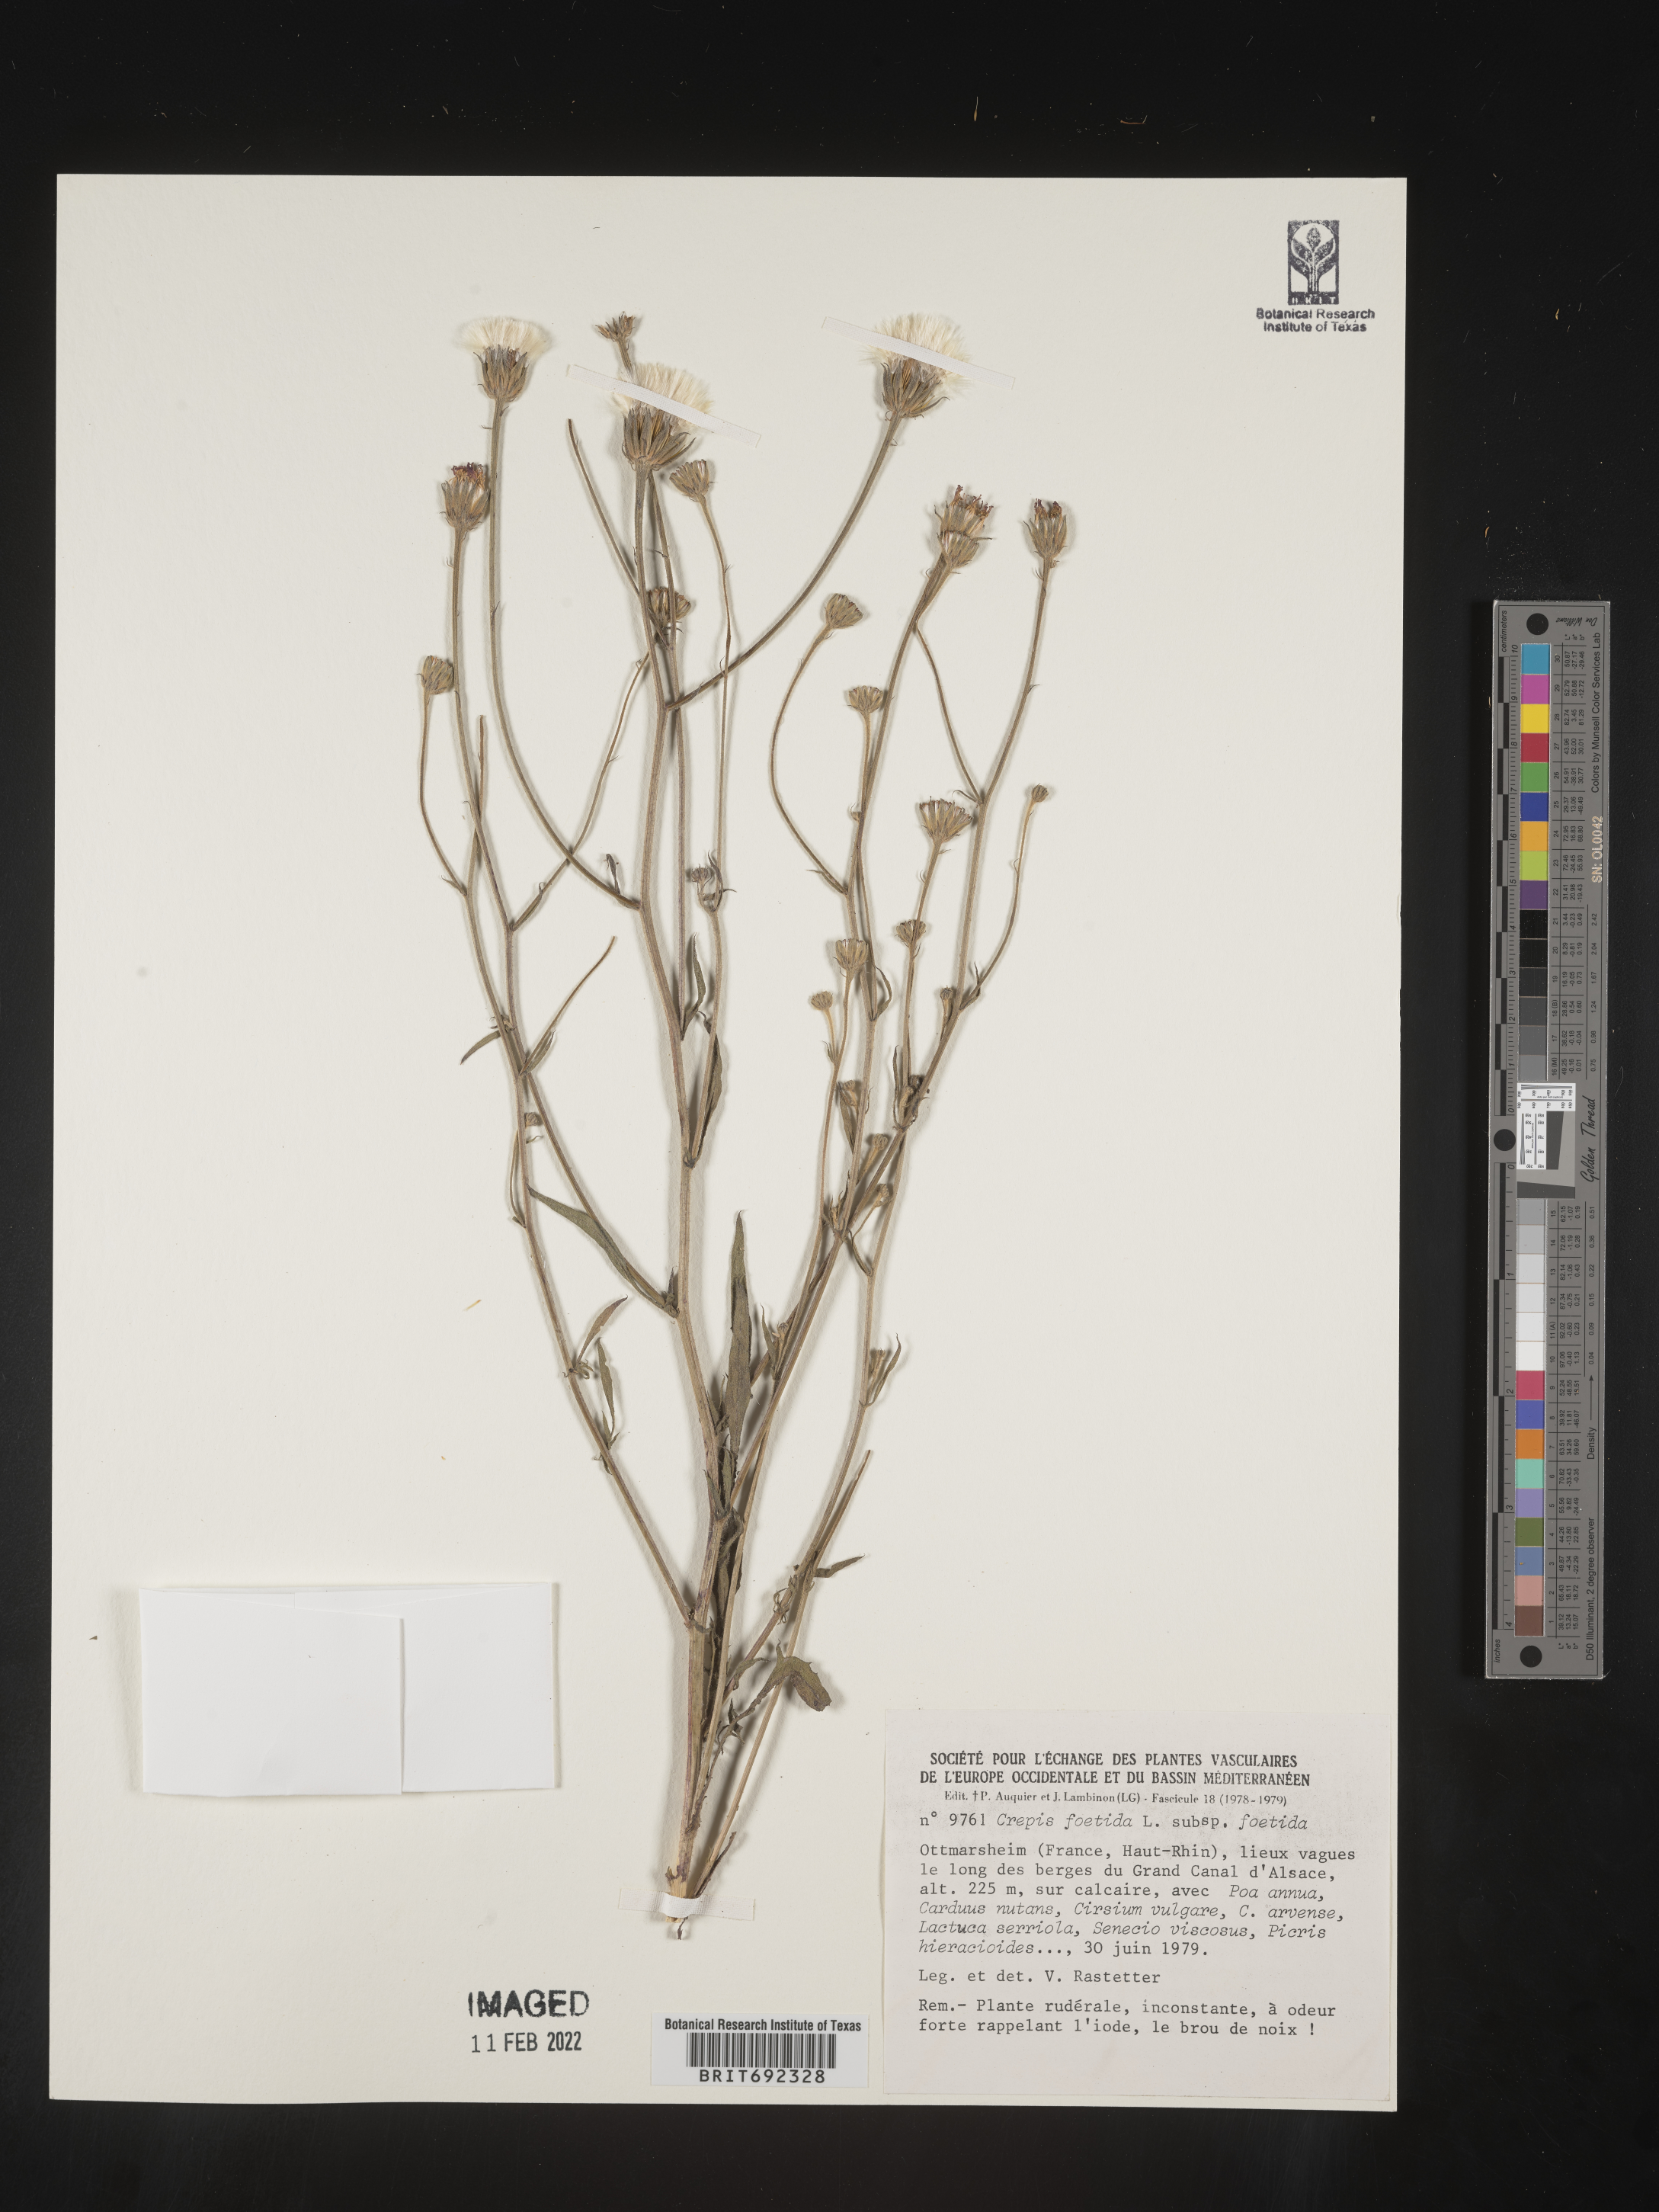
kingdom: Plantae
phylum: Tracheophyta
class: Magnoliopsida
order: Asterales
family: Asteraceae
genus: Crepis
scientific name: Crepis
